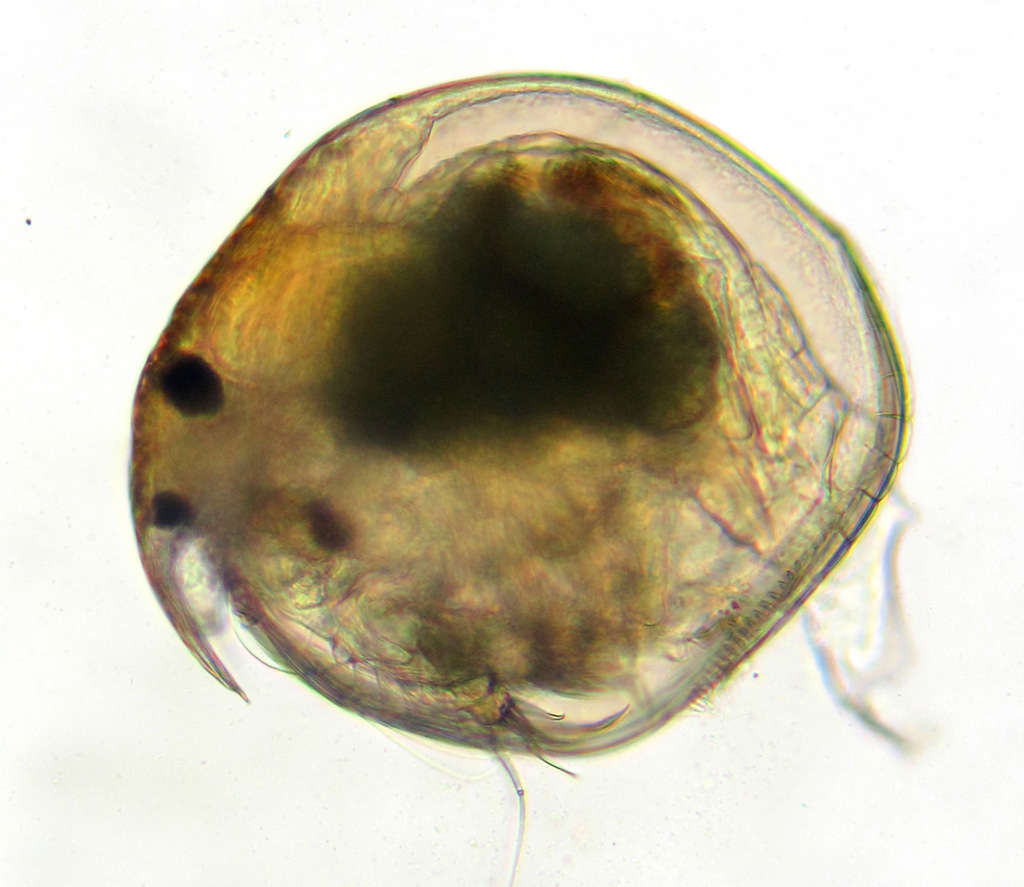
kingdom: Animalia
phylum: Arthropoda
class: Branchiopoda
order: Diplostraca
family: Chydoridae
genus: Chydorus
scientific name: Chydorus sphaericus
